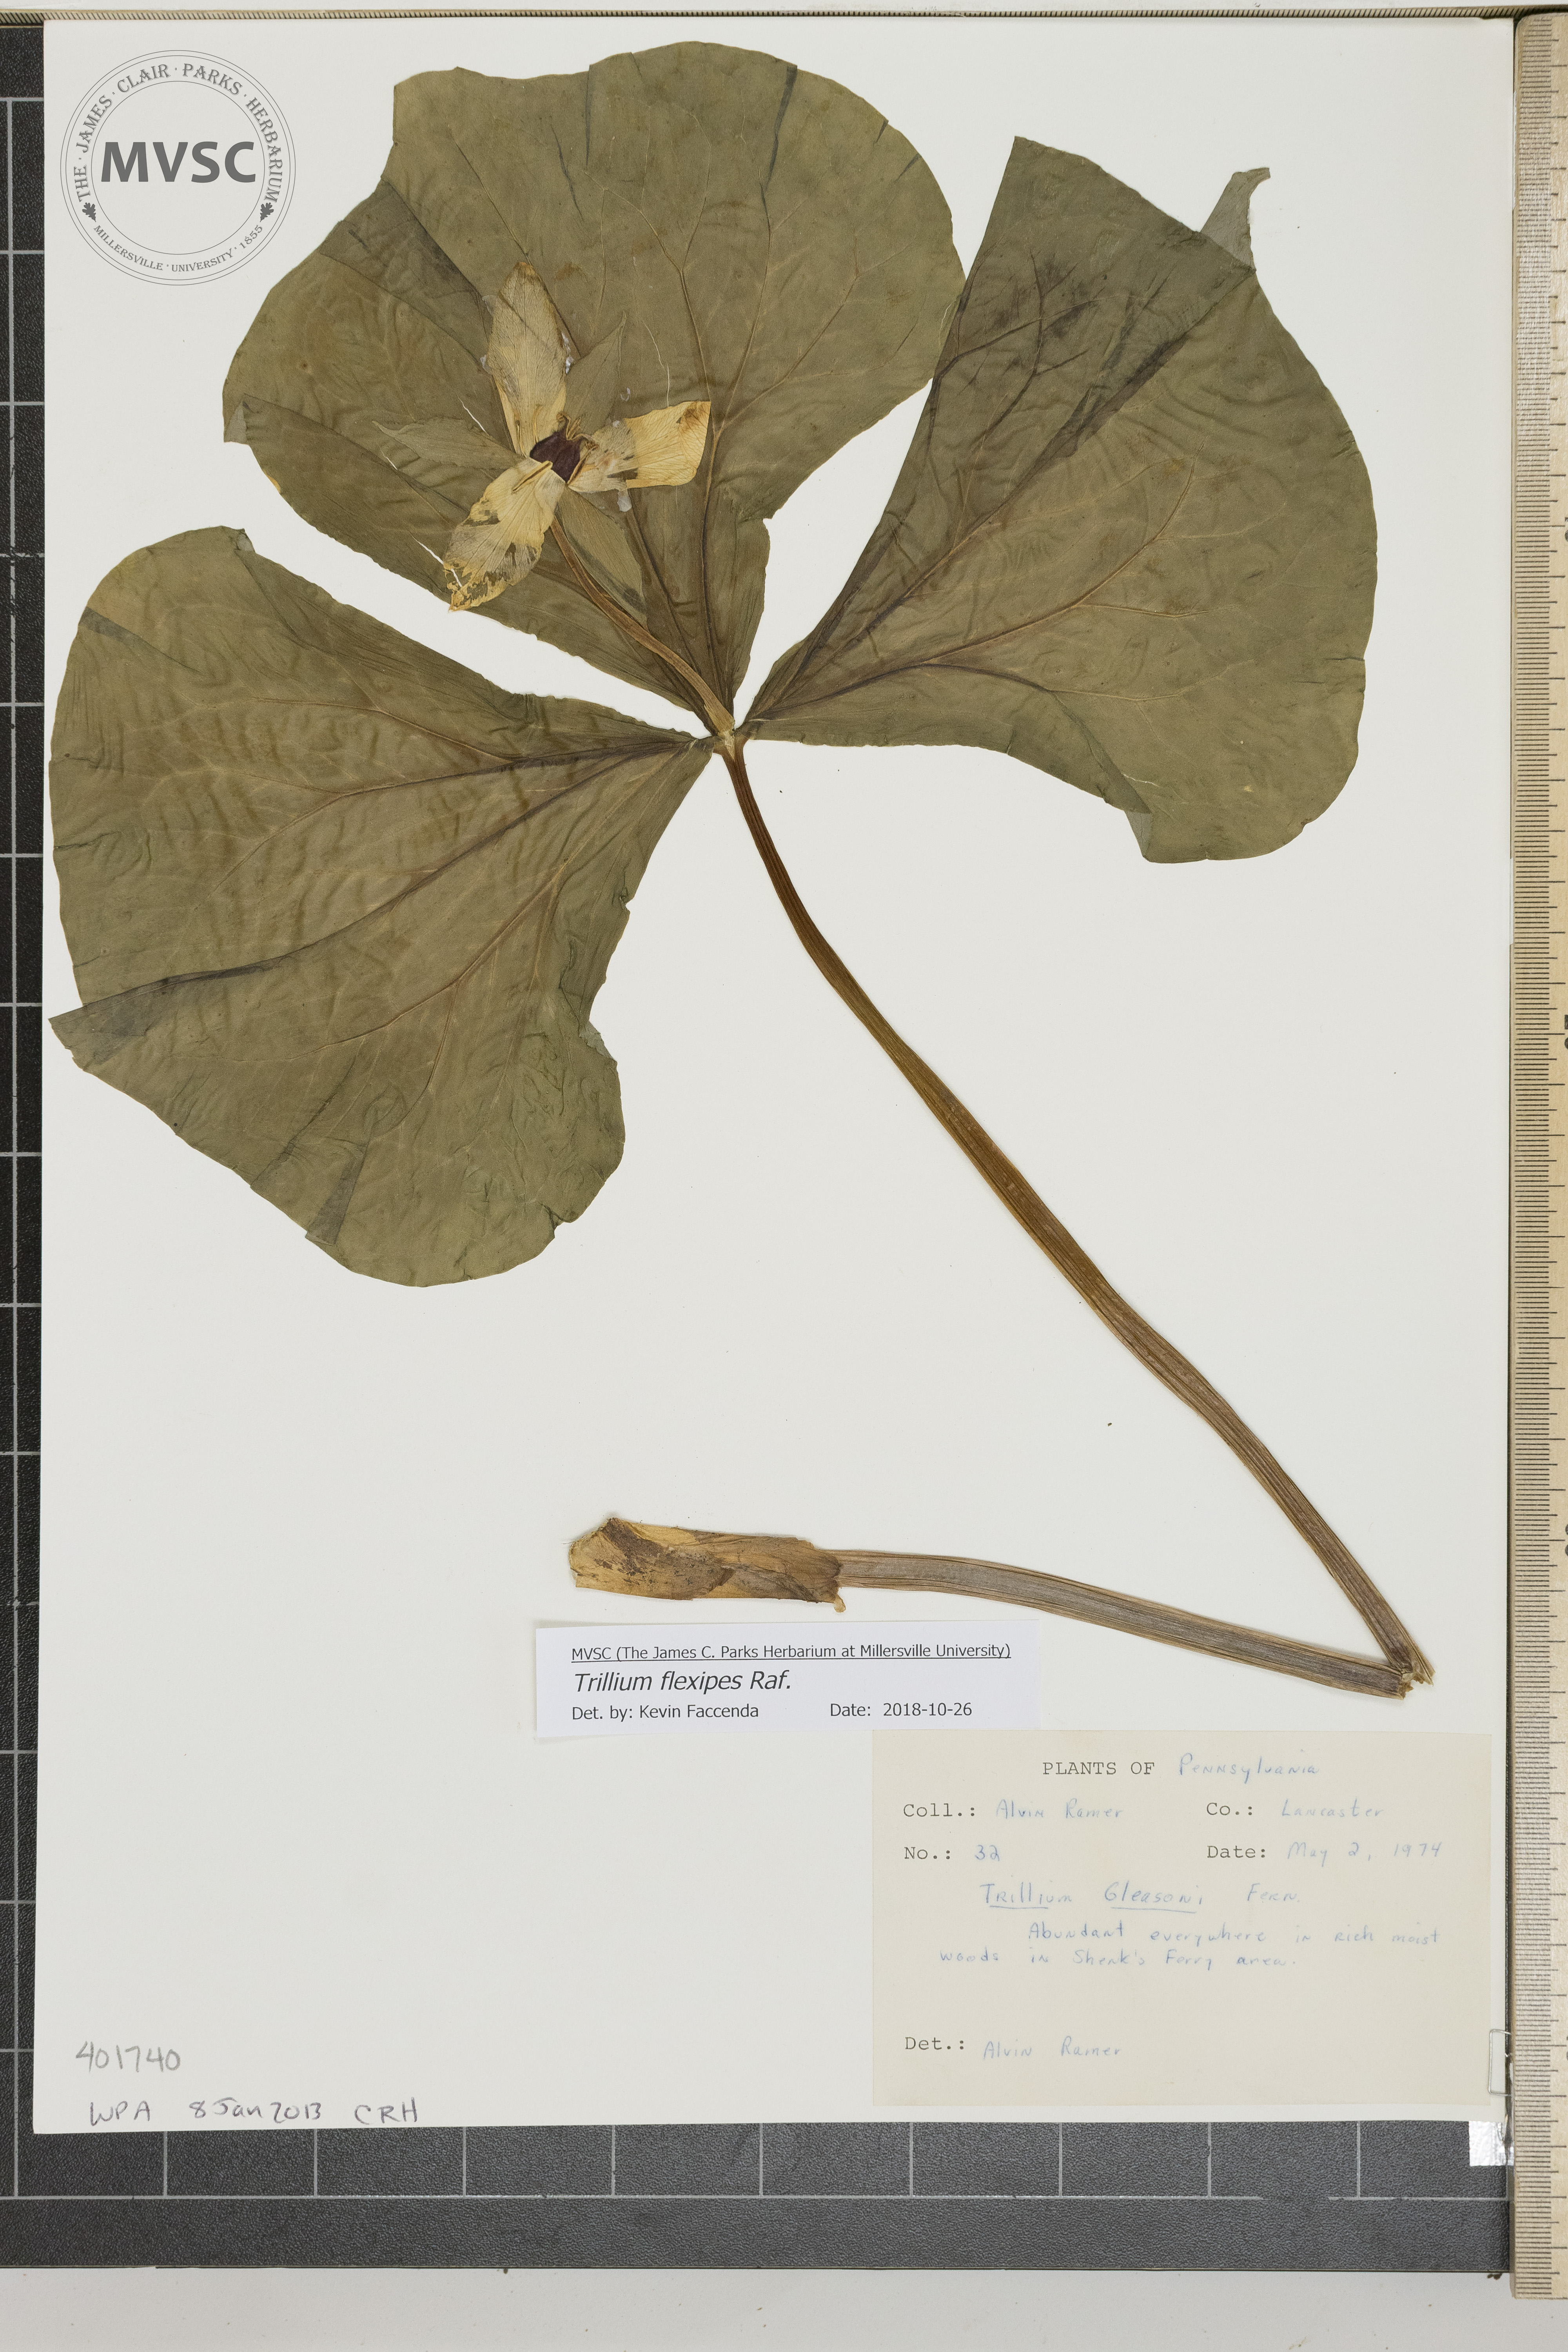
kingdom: Plantae
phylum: Tracheophyta
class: Liliopsida
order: Liliales
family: Melanthiaceae
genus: Trillium
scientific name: Trillium flexipes
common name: Trillium
